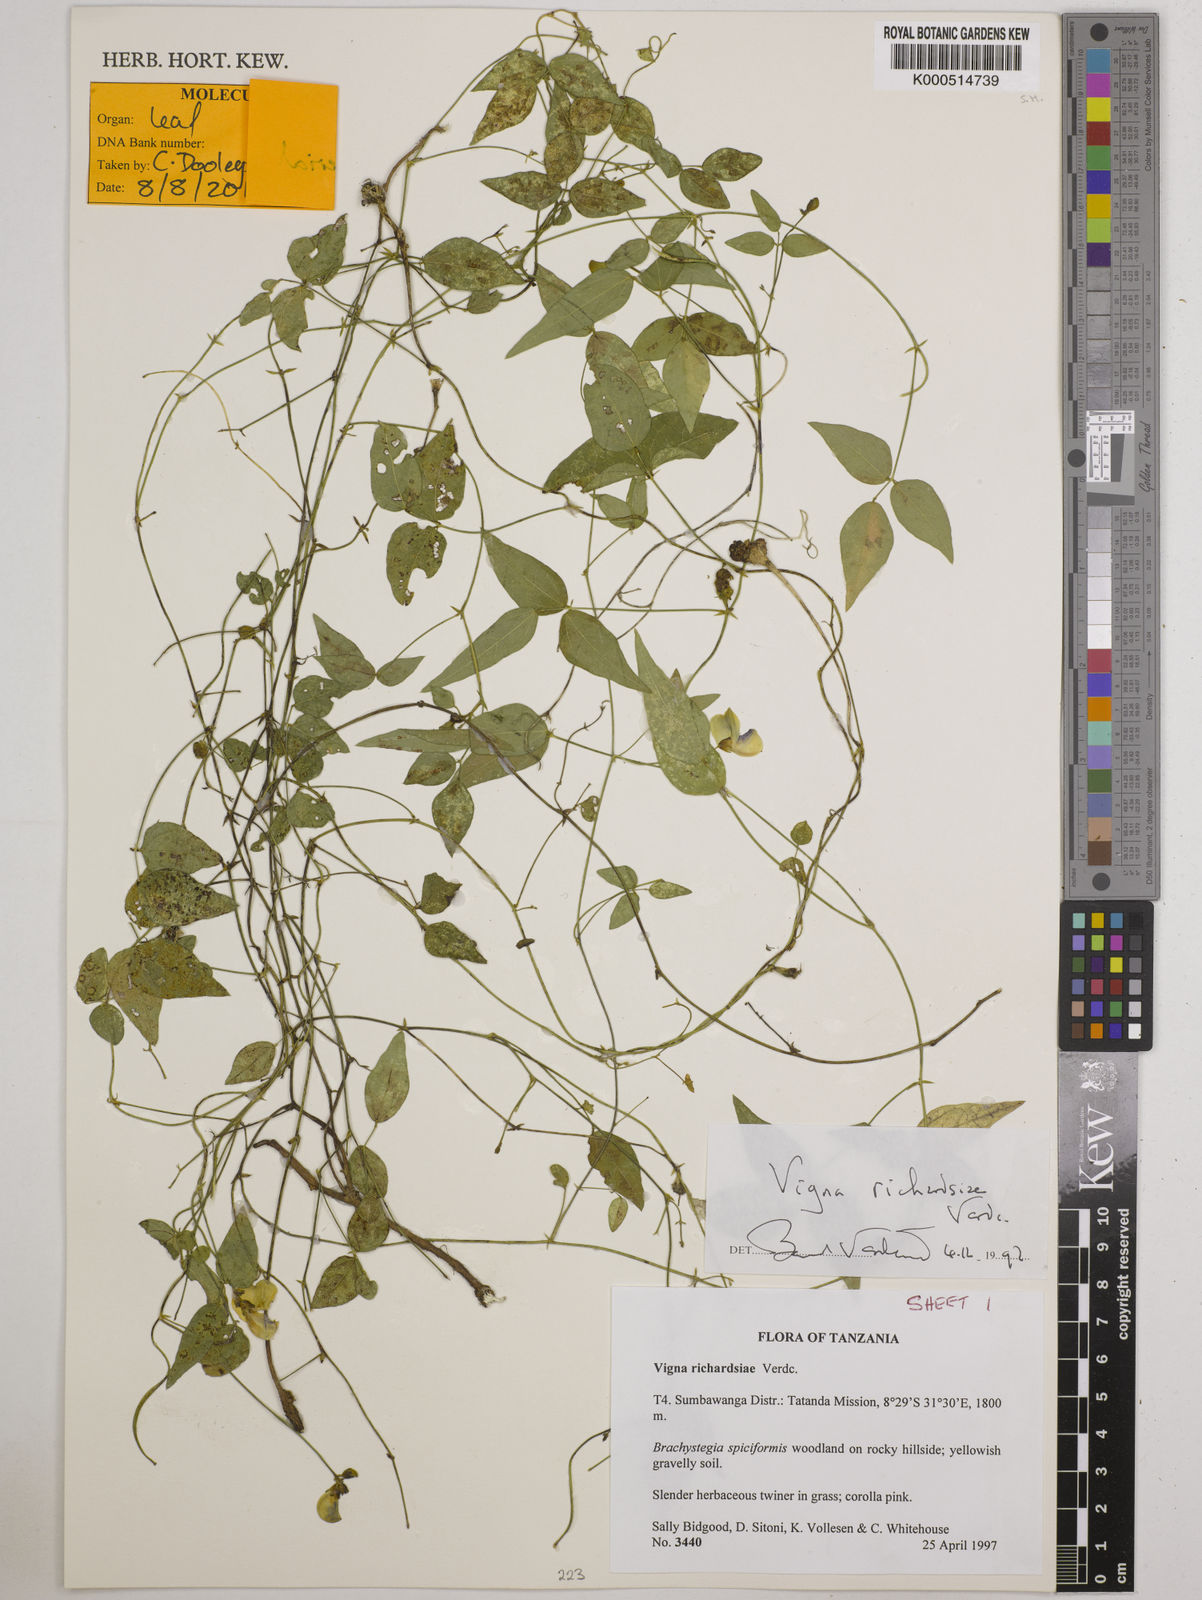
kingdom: Plantae
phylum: Tracheophyta
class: Magnoliopsida
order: Fabales
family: Fabaceae
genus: Vigna
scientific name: Vigna richardsiae
